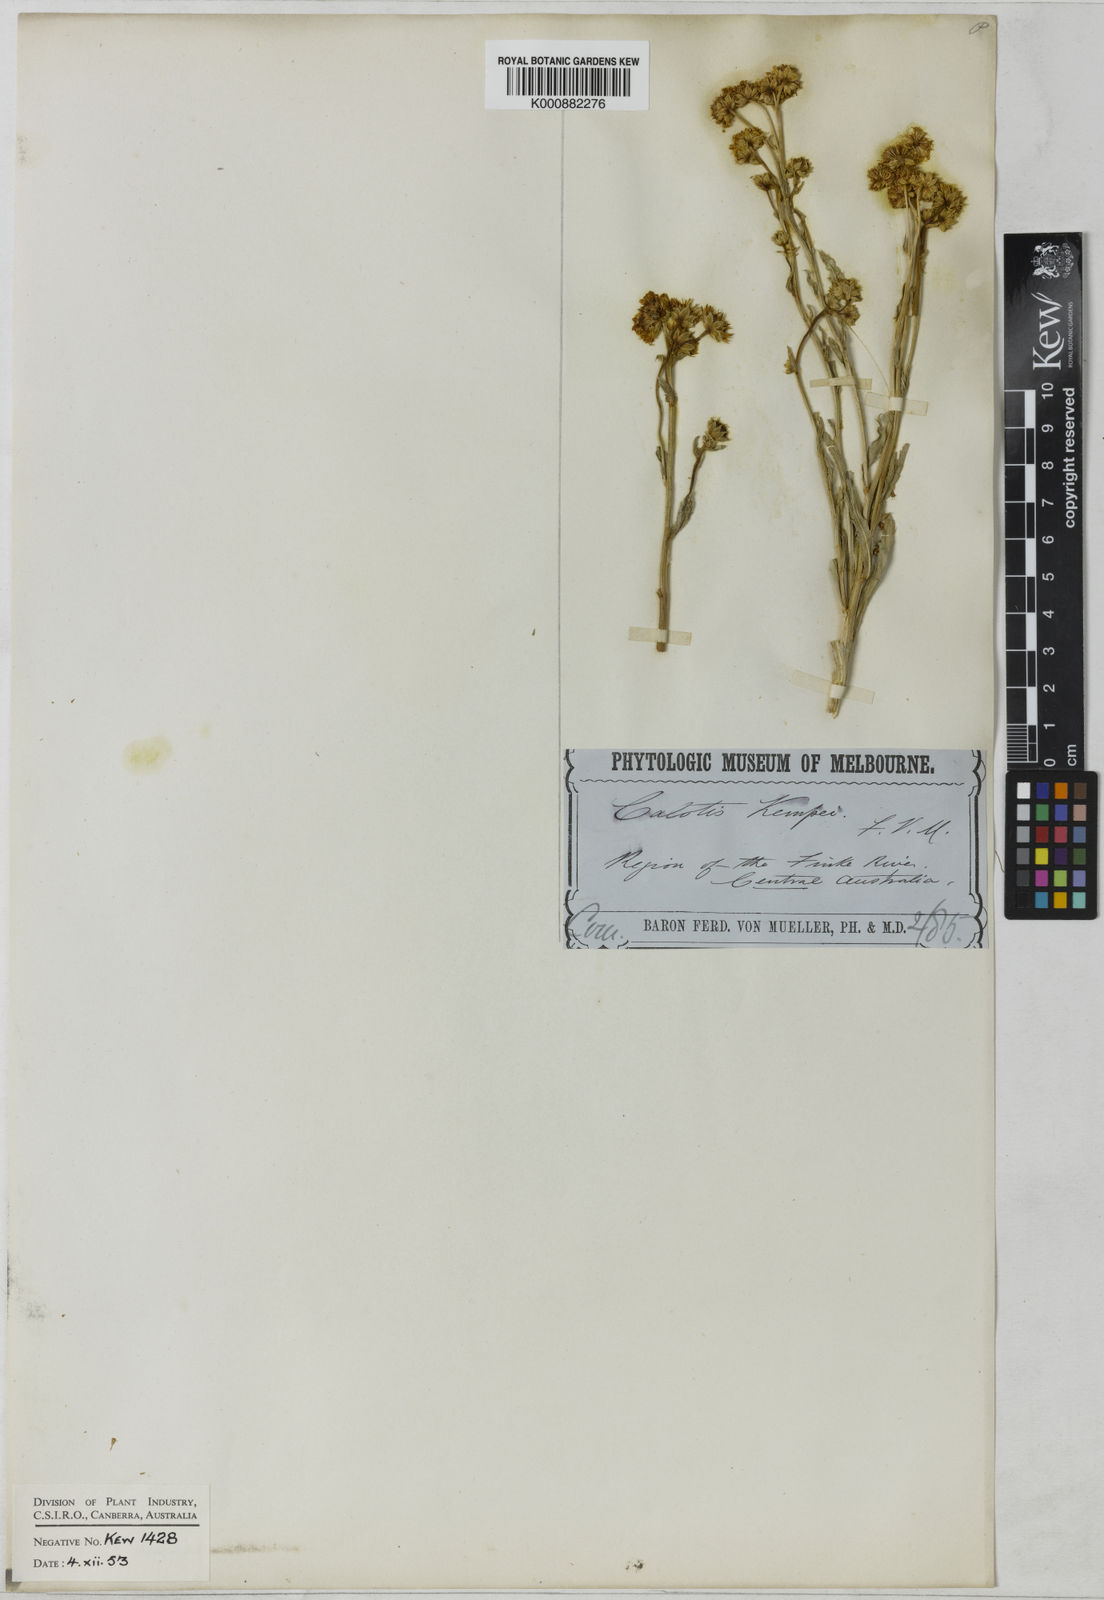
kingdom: Plantae
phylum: Tracheophyta
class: Magnoliopsida
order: Asterales
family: Asteraceae
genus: Calotis
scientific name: Calotis kempei
